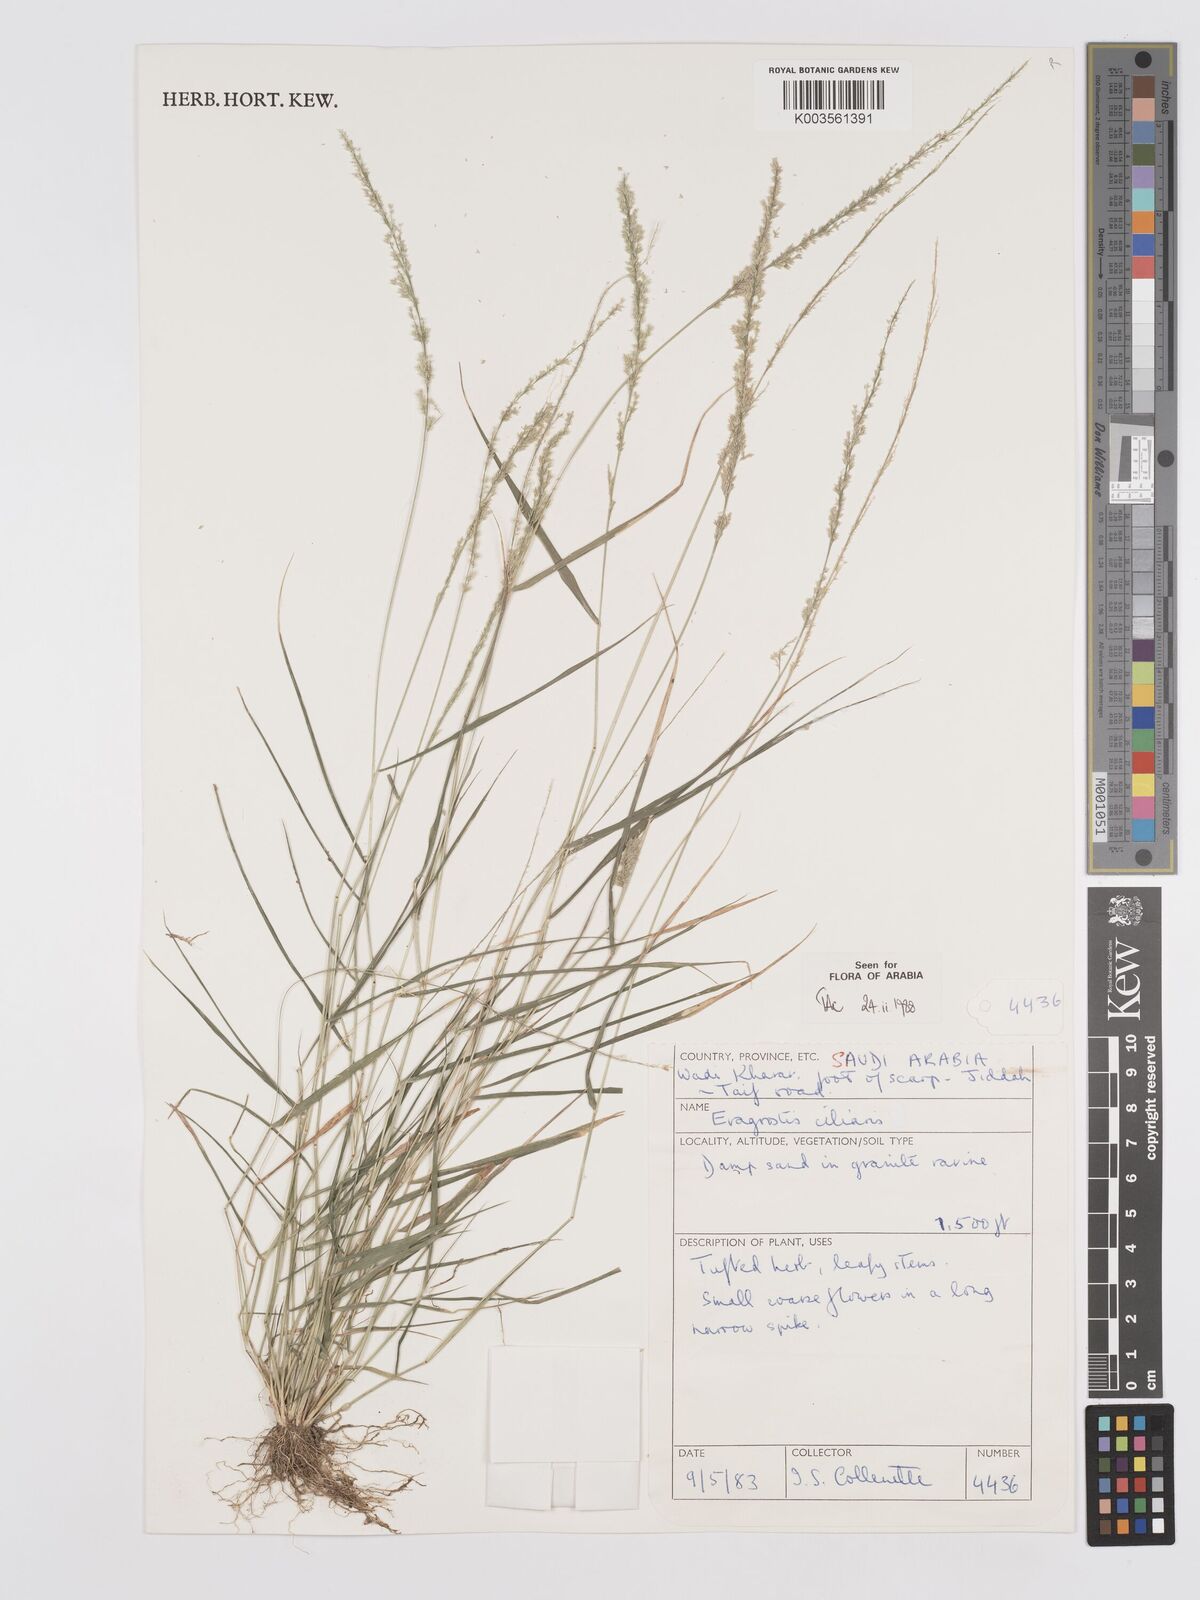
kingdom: Plantae
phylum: Tracheophyta
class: Liliopsida
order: Poales
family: Poaceae
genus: Eragrostis
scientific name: Eragrostis ciliaris
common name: Gophertail lovegrass
